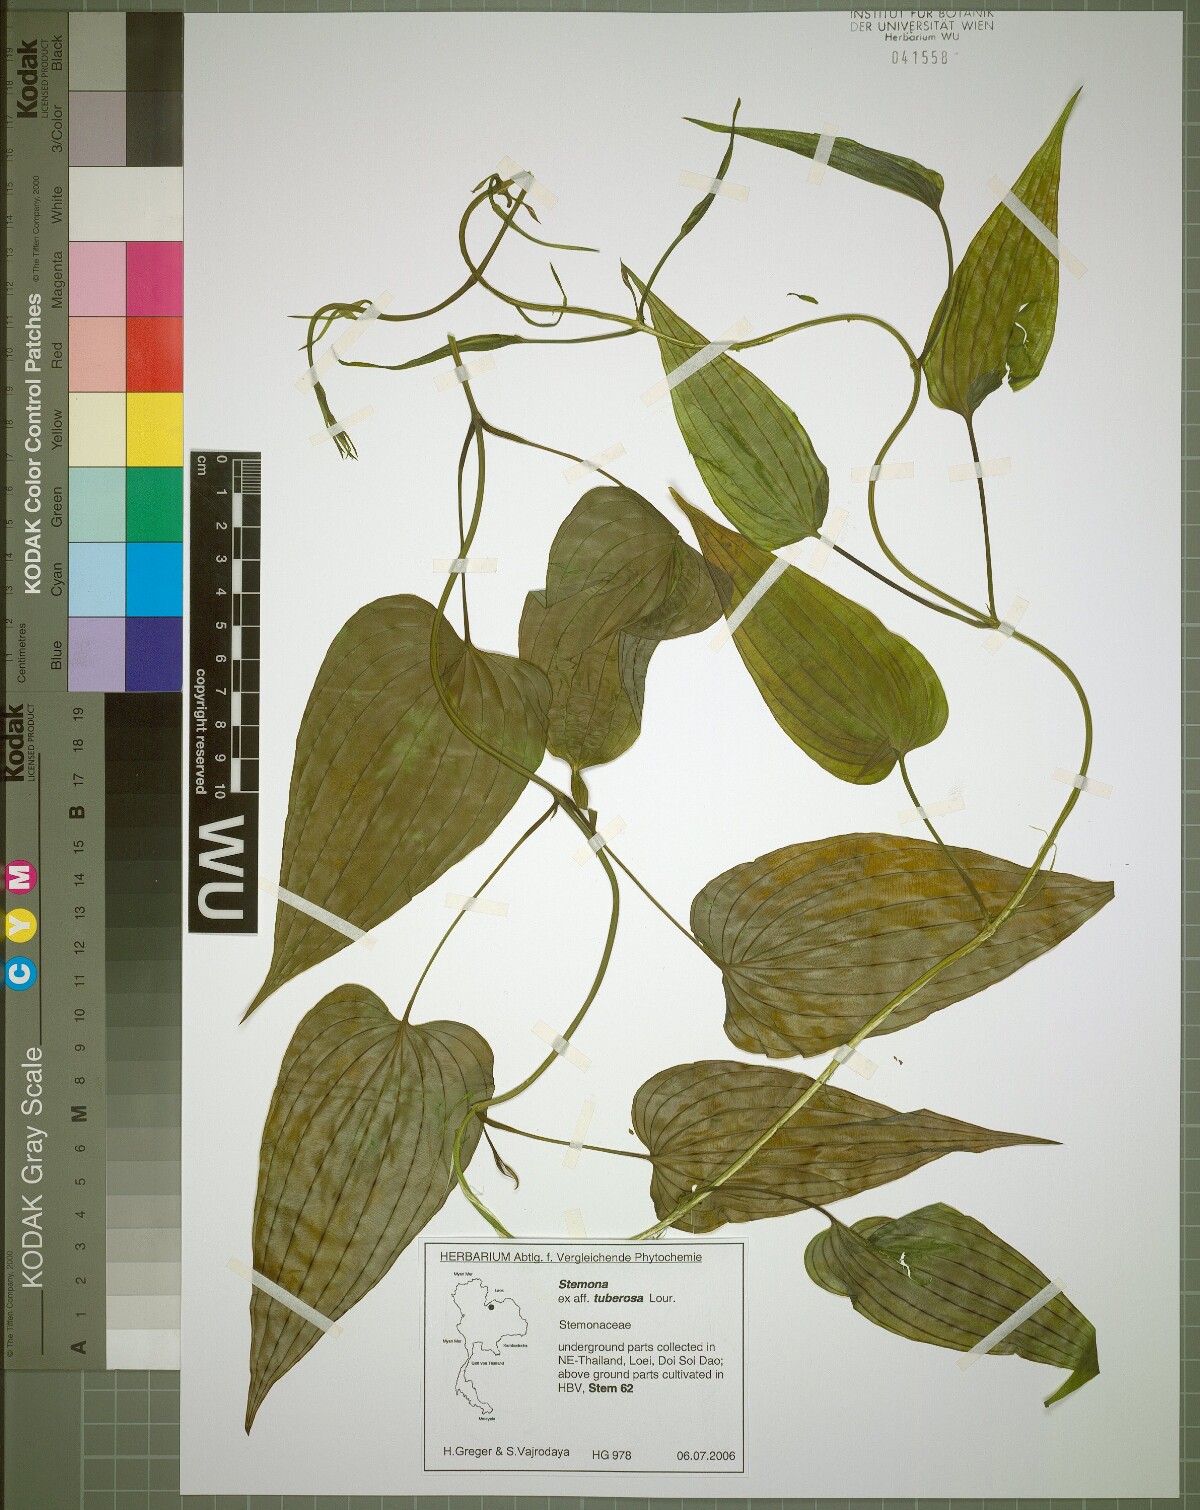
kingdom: Plantae
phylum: Tracheophyta
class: Liliopsida
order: Pandanales
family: Stemonaceae
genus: Stemona
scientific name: Stemona tuberosa
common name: Stemona
